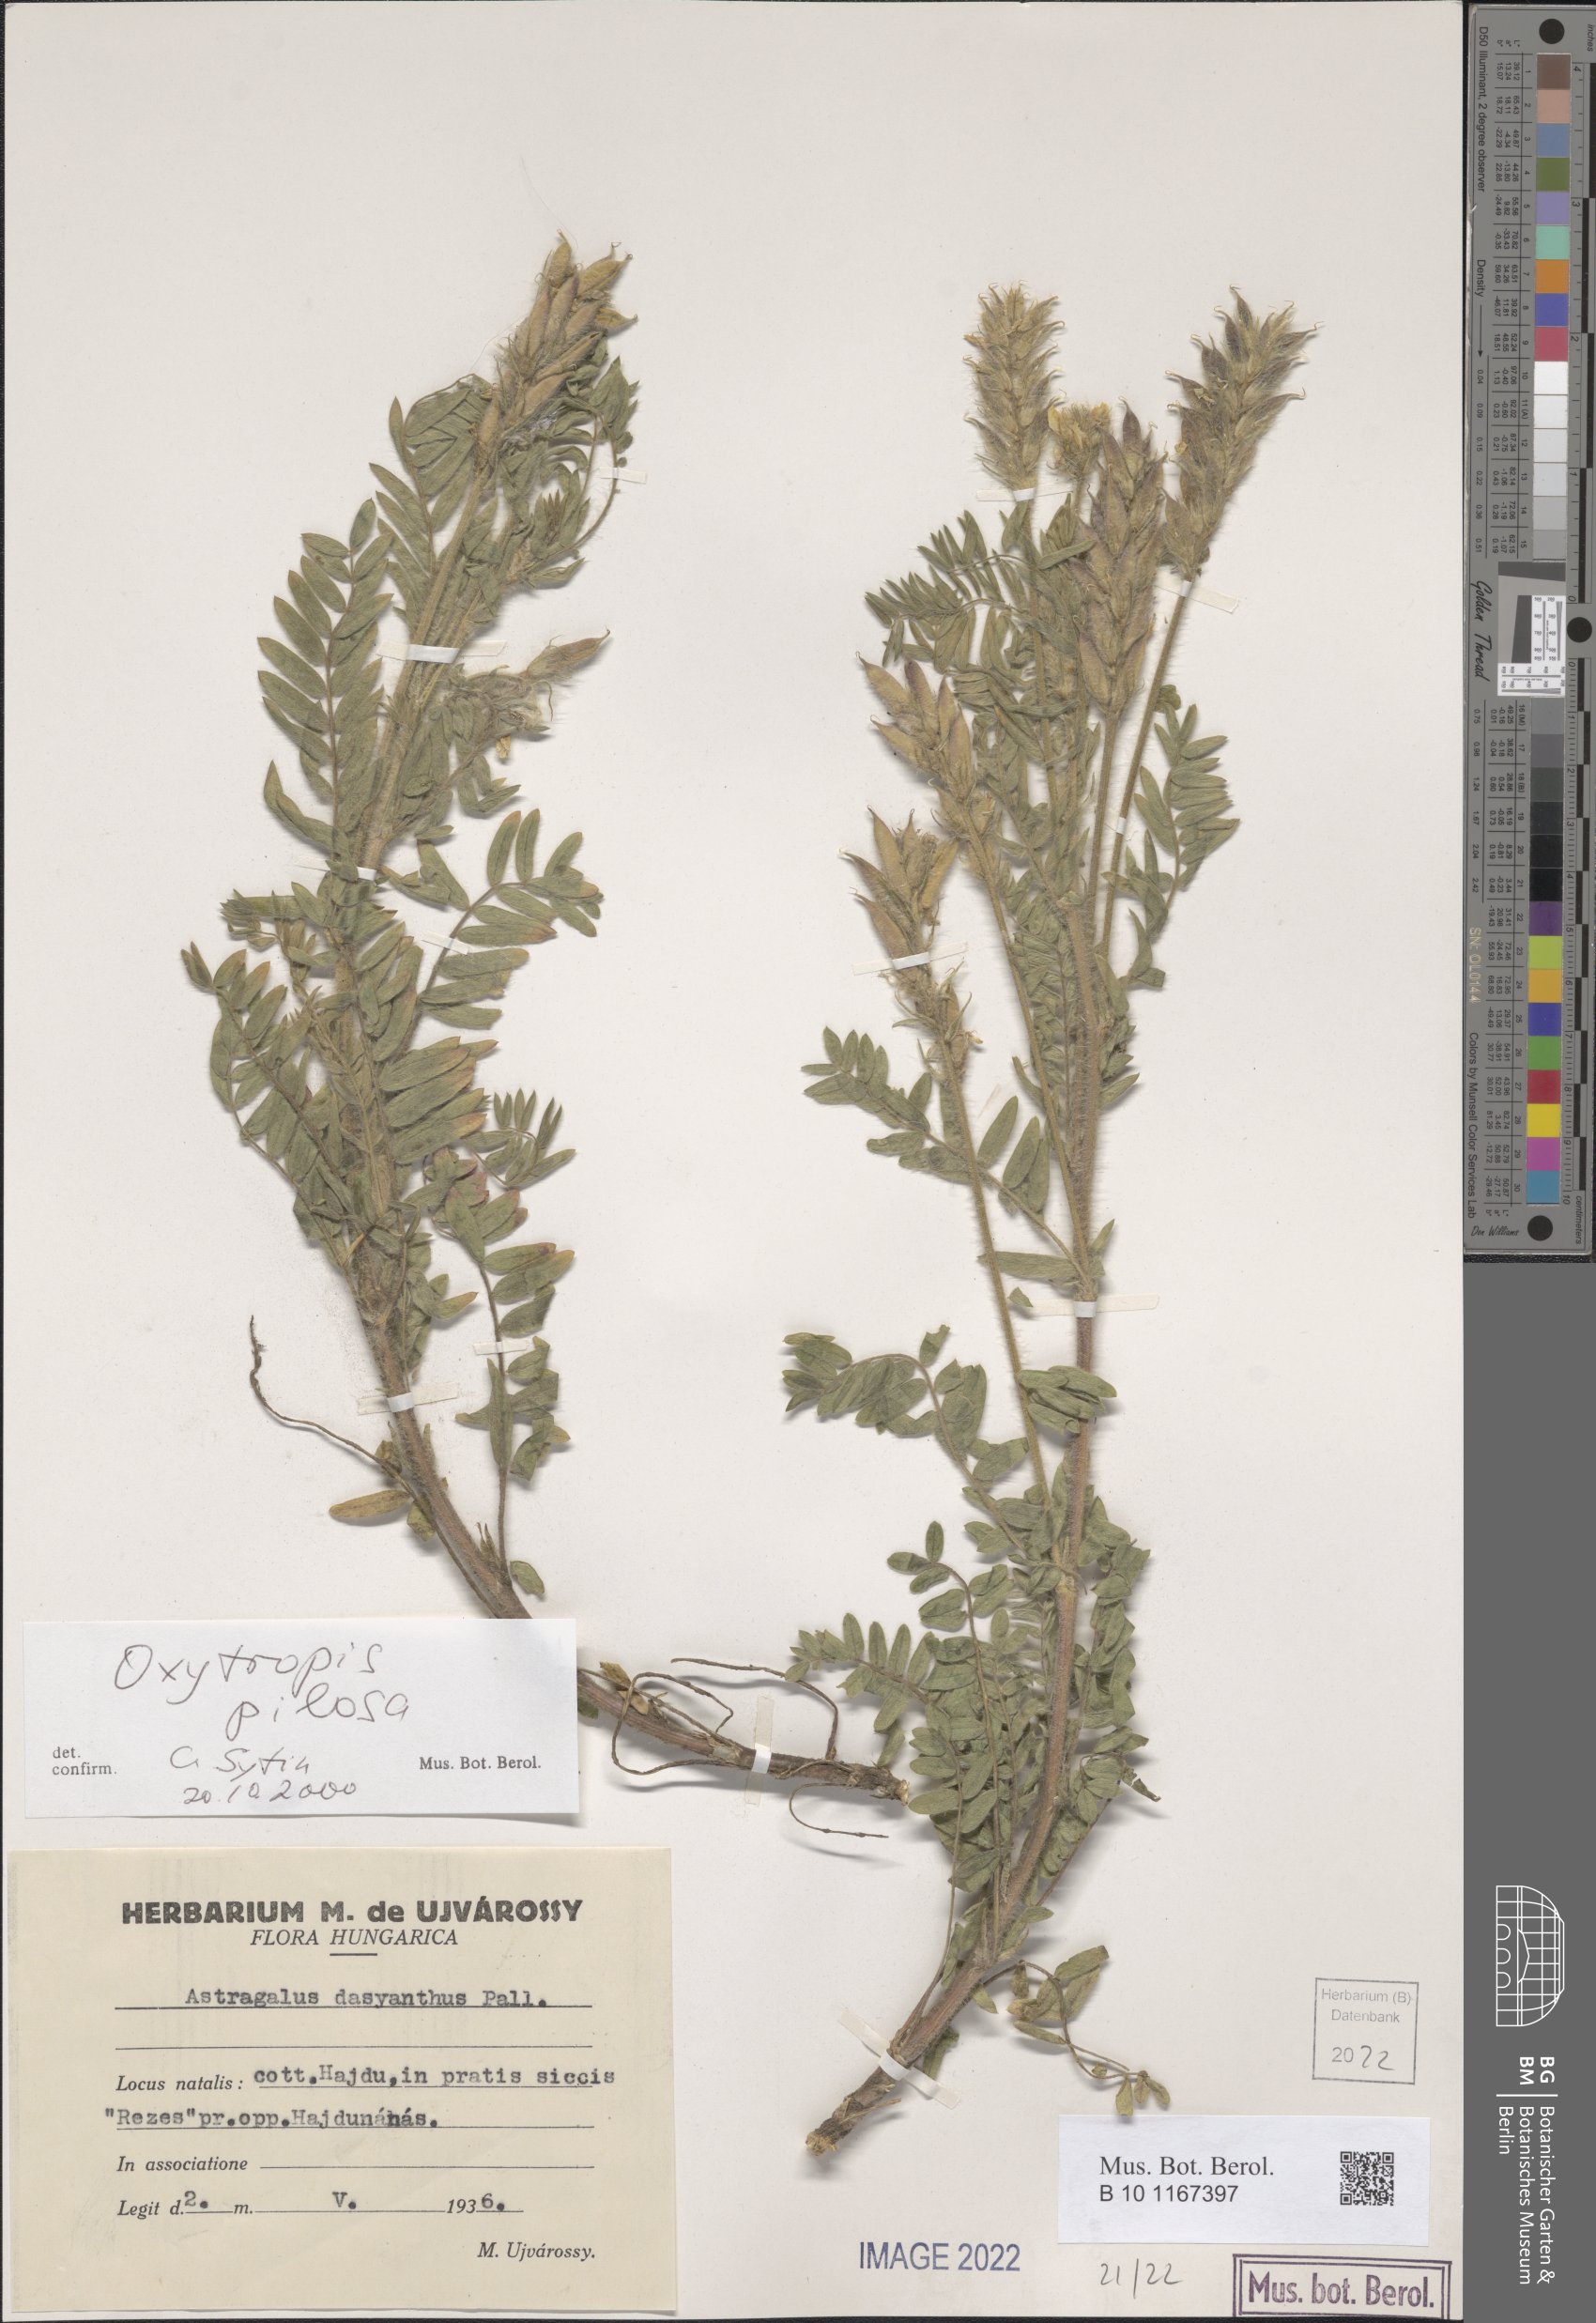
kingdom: Plantae
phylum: Tracheophyta
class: Magnoliopsida
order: Fabales
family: Fabaceae
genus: Oxytropis
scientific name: Oxytropis pilosa
